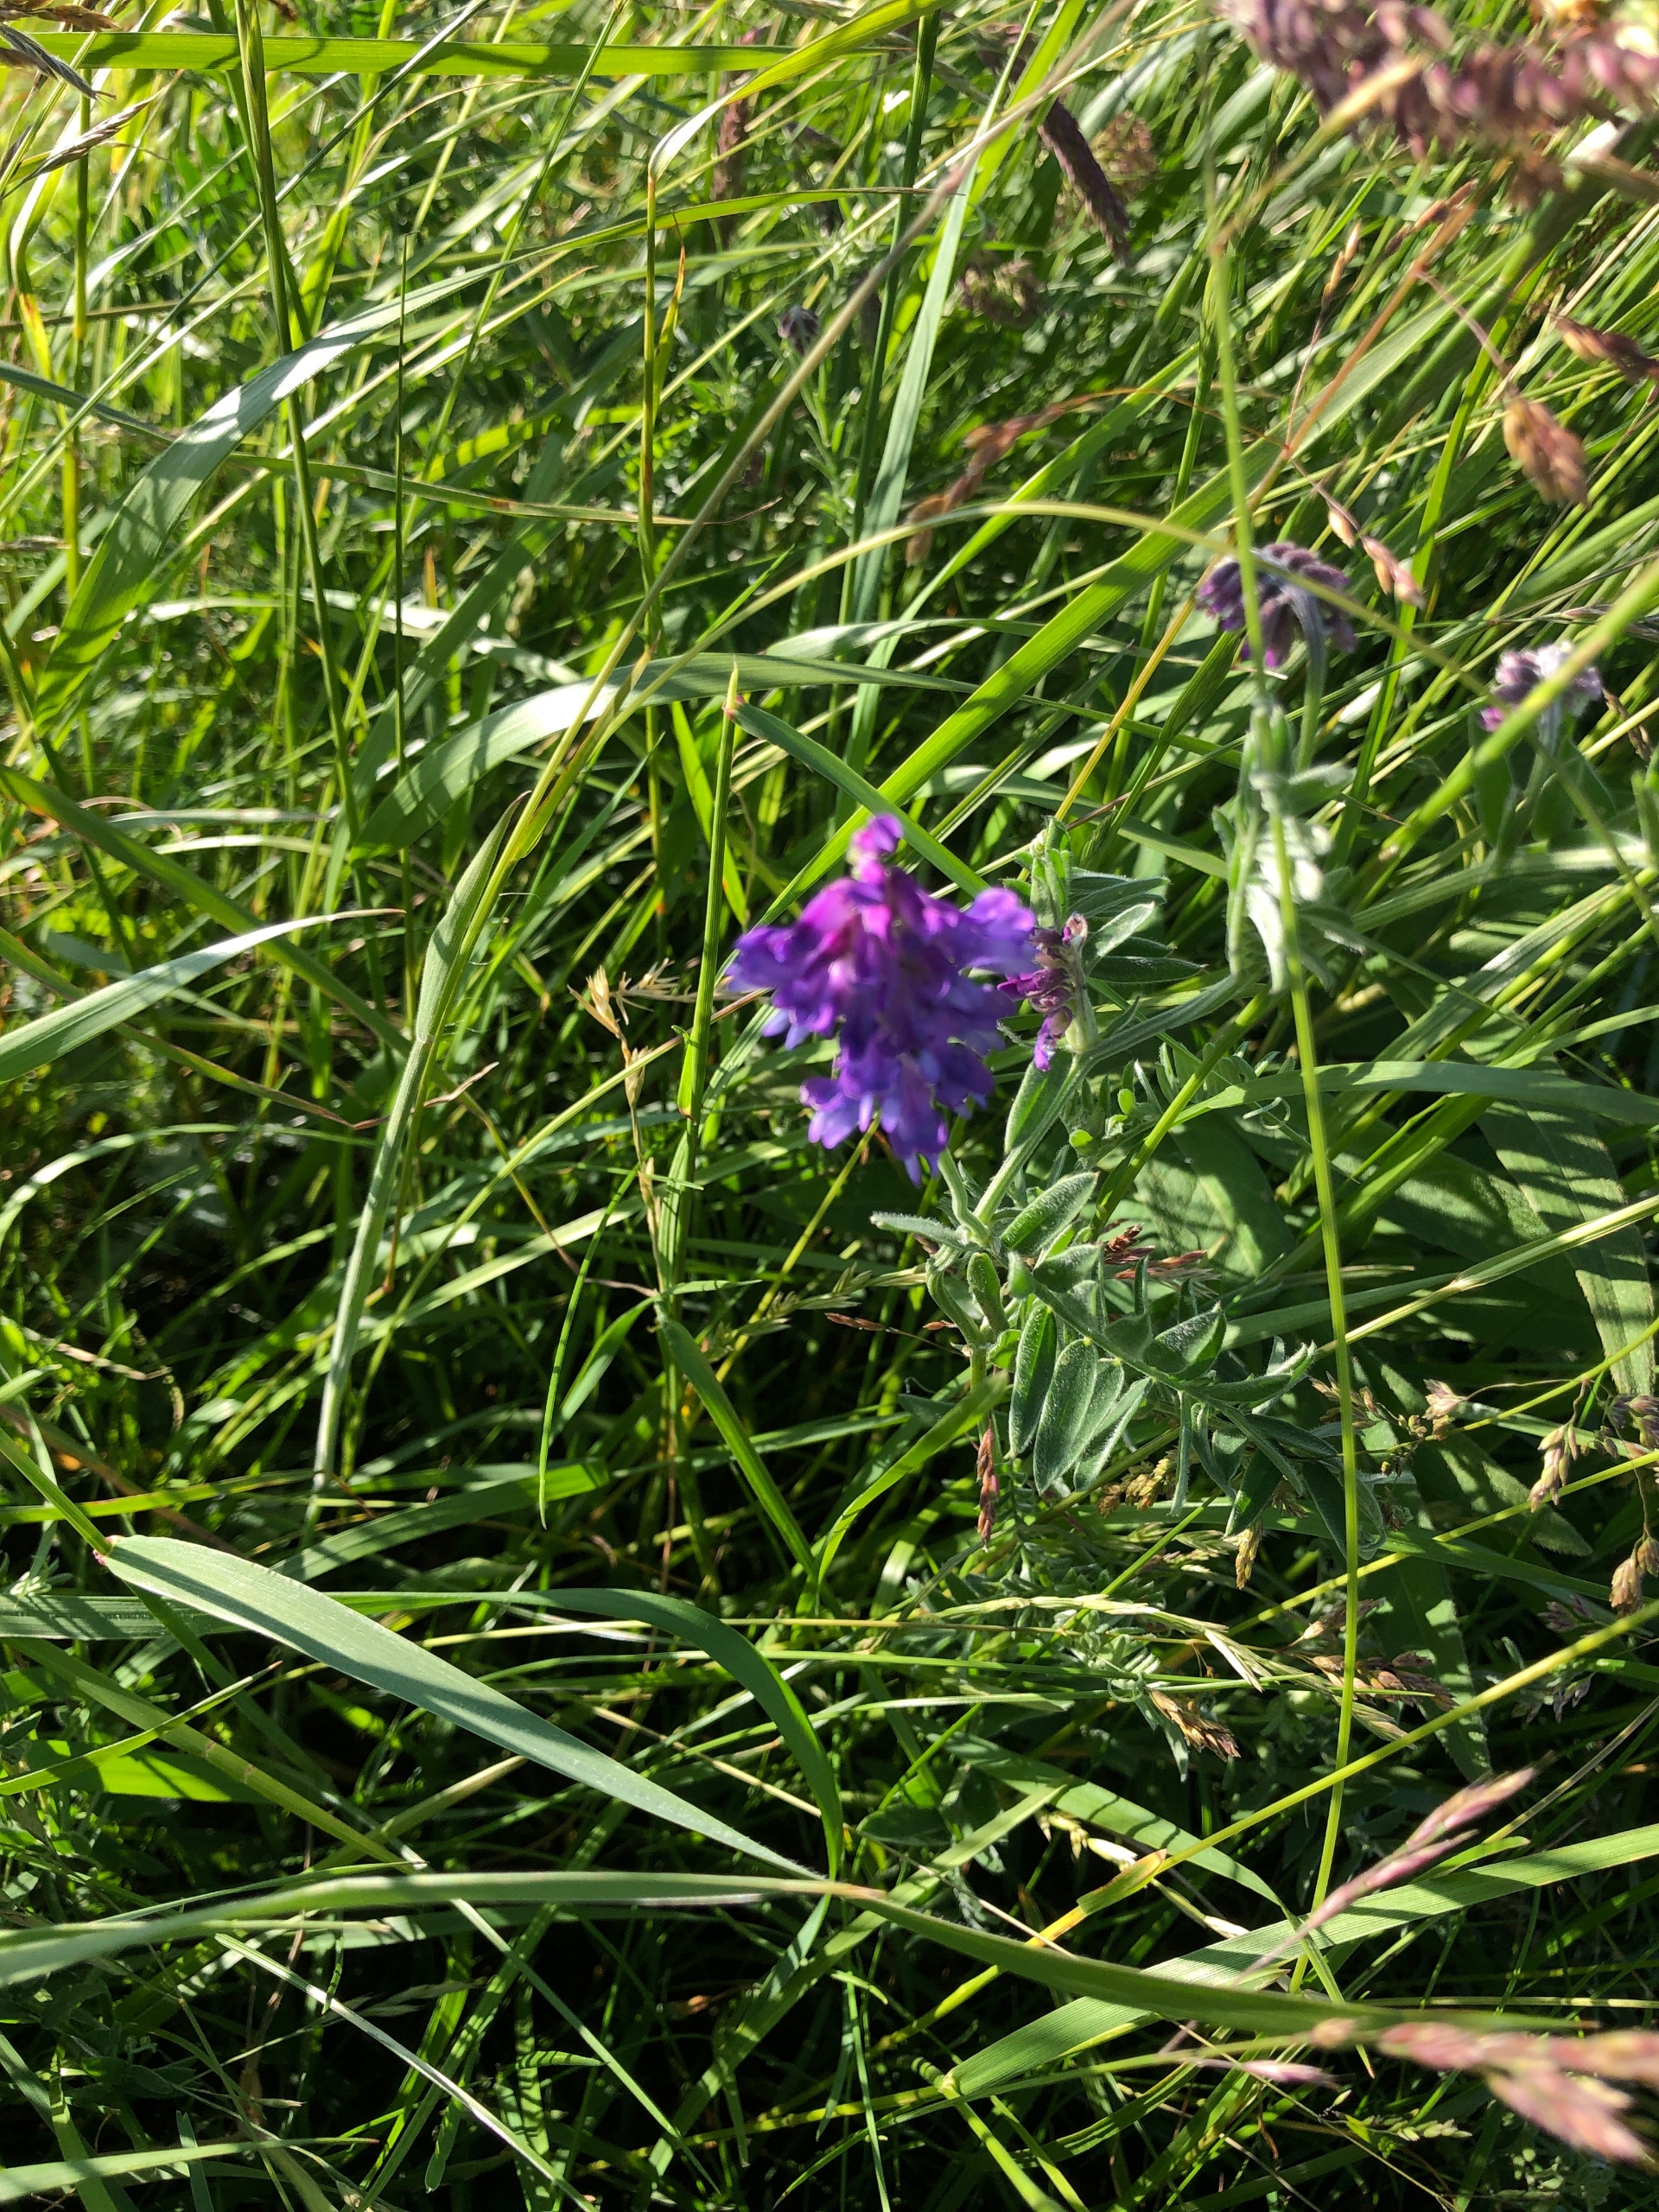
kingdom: Plantae
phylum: Tracheophyta
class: Magnoliopsida
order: Fabales
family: Fabaceae
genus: Vicia
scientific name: Vicia cracca
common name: Muse-vikke
